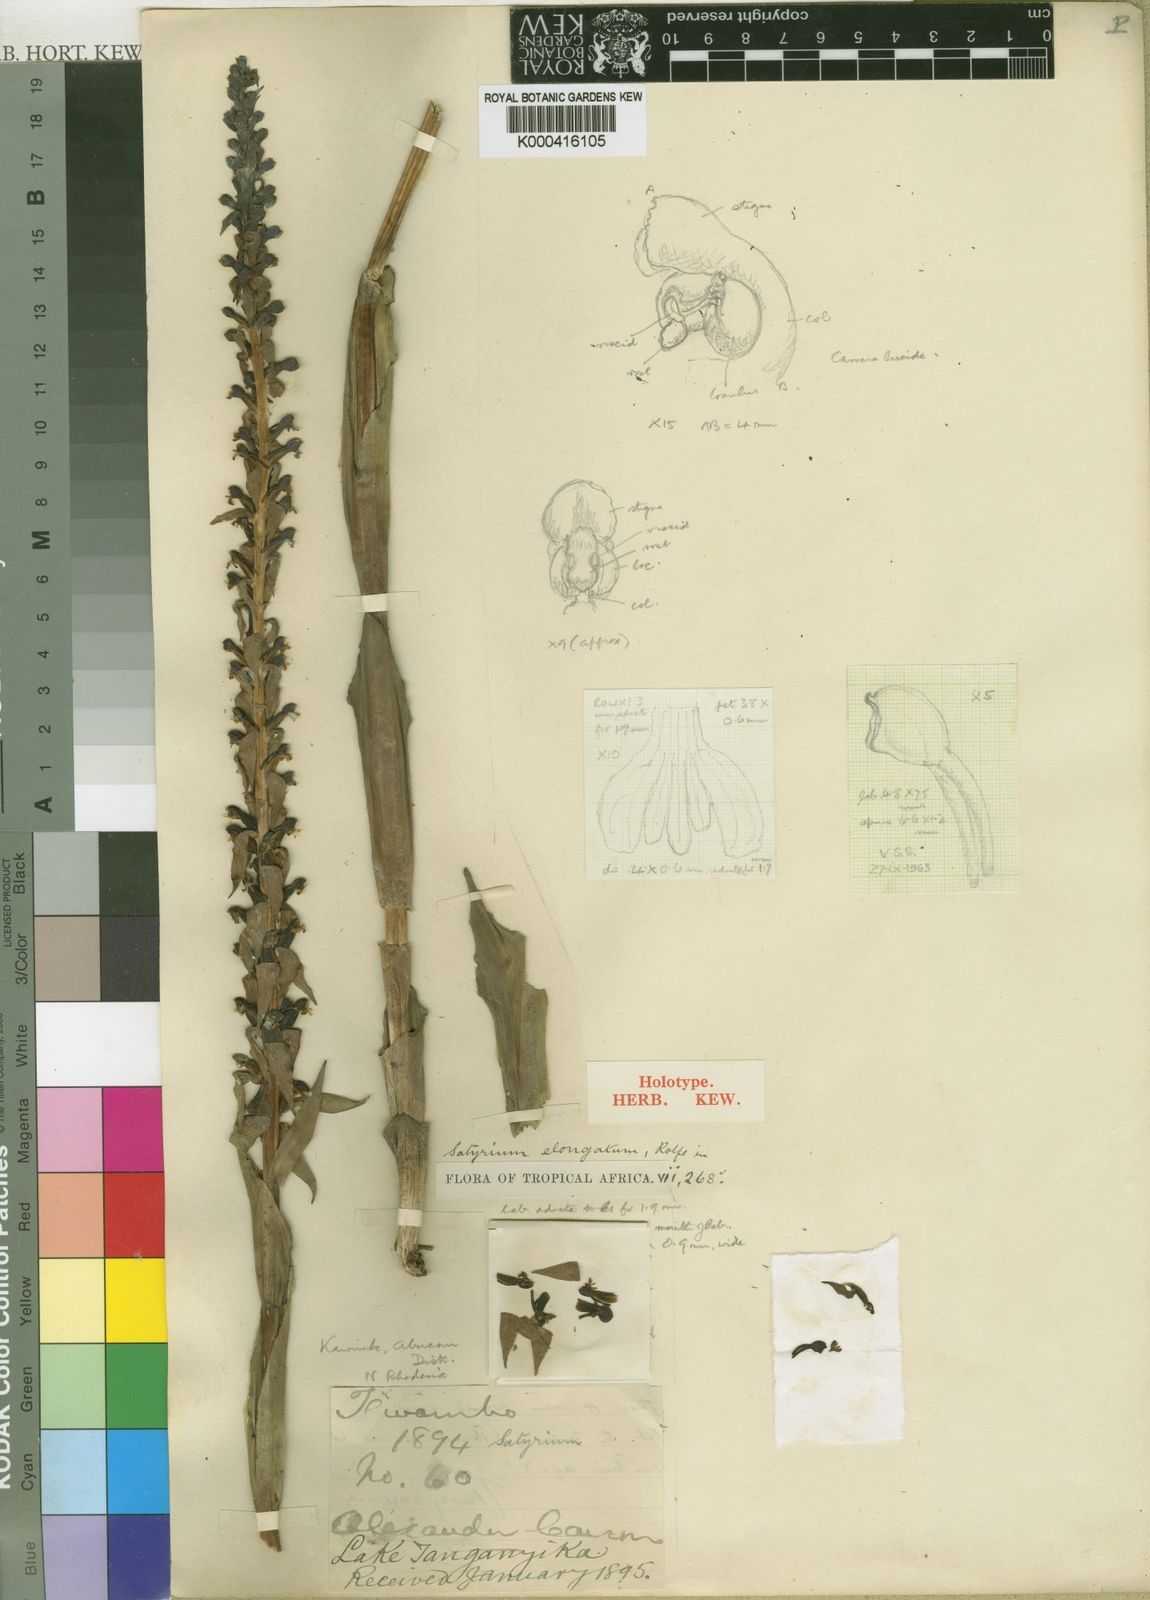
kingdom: Plantae
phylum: Tracheophyta
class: Liliopsida
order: Asparagales
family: Orchidaceae
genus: Satyrium
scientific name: Satyrium elongatum
